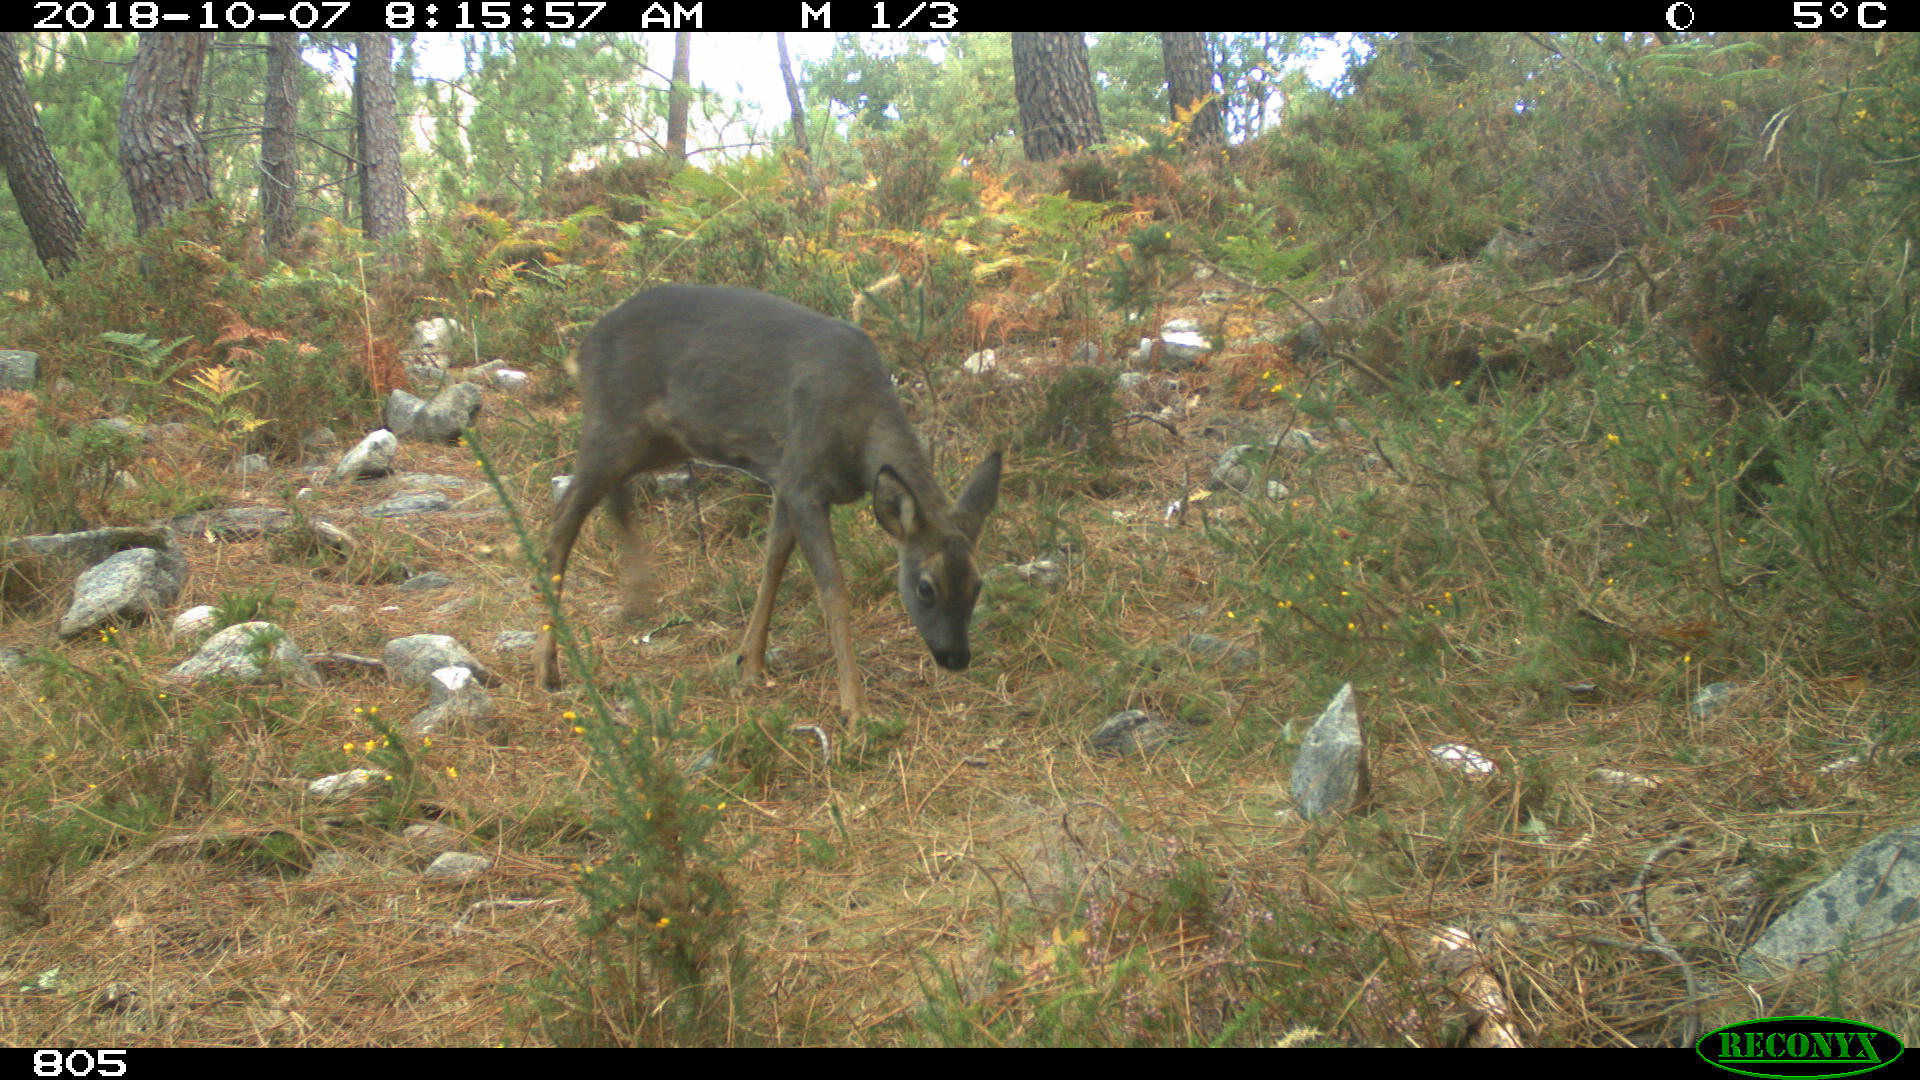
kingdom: Animalia
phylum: Chordata
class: Mammalia
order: Artiodactyla
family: Cervidae
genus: Capreolus
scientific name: Capreolus capreolus
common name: Western roe deer
